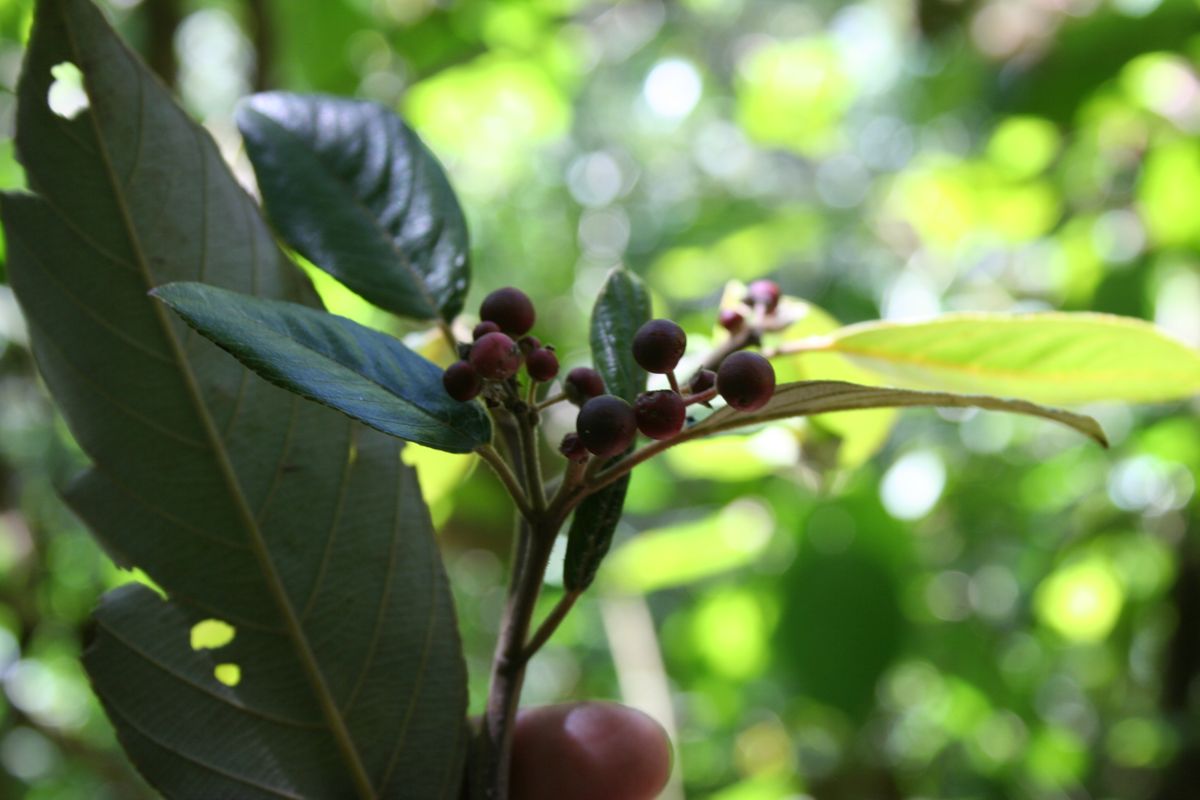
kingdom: Plantae
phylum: Tracheophyta
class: Magnoliopsida
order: Rosales
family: Rhamnaceae
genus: Frangula
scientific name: Frangula discolor
